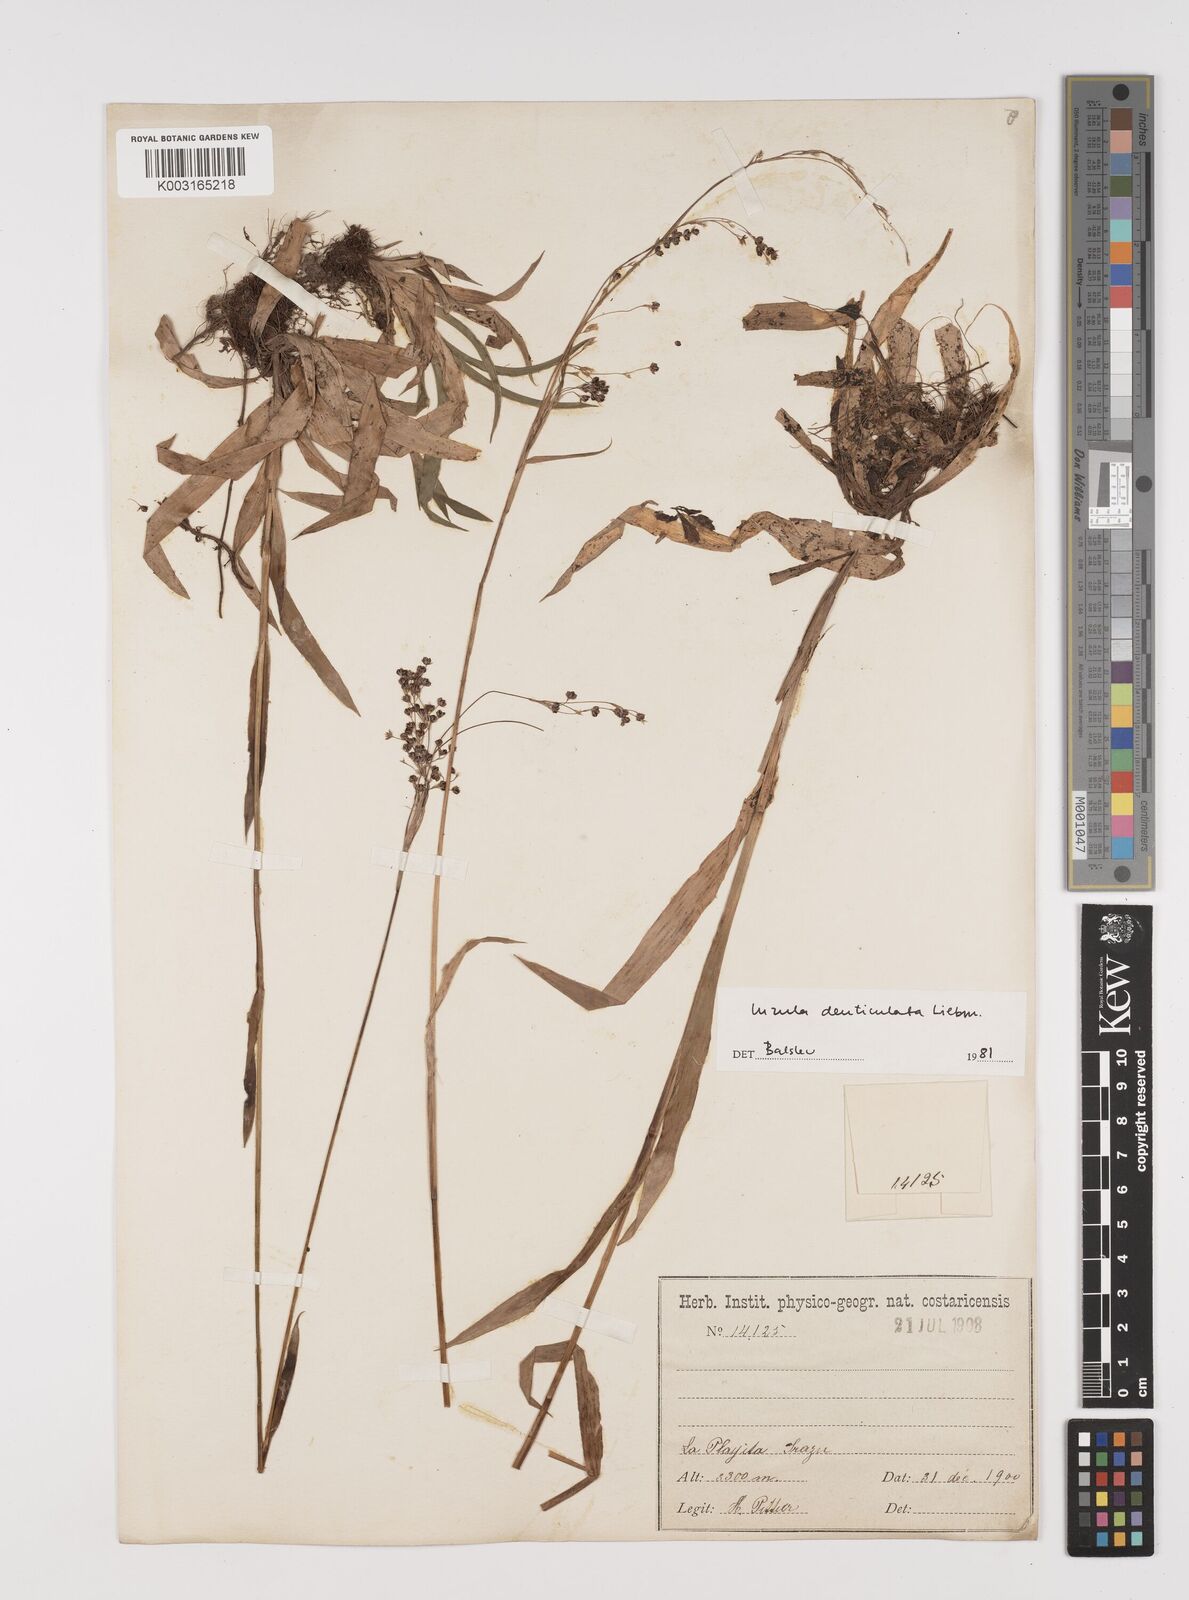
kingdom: Plantae
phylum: Tracheophyta
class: Liliopsida
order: Poales
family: Juncaceae
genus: Luzula
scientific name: Luzula gigantea
